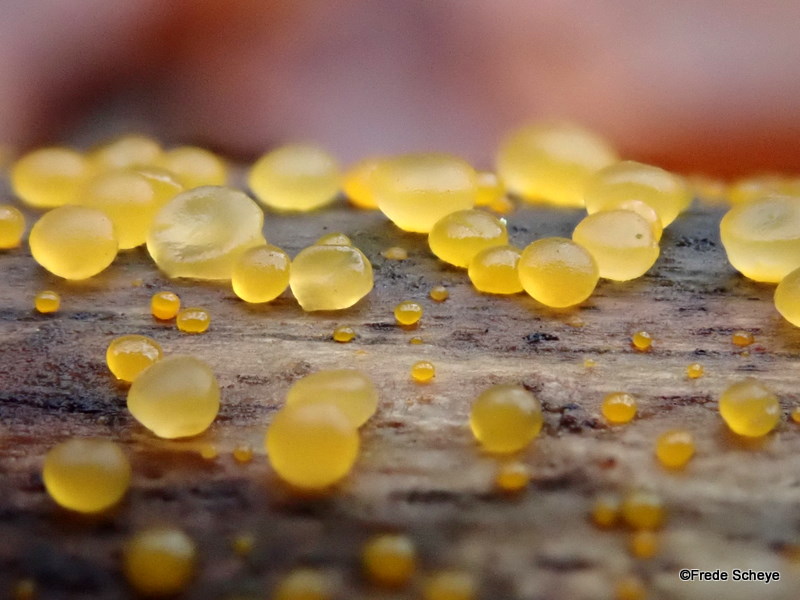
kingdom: Fungi
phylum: Basidiomycota
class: Dacrymycetes
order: Dacrymycetales
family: Dacrymycetaceae
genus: Dacrymyces
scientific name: Dacrymyces stillatus
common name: almindelig tåresvamp
